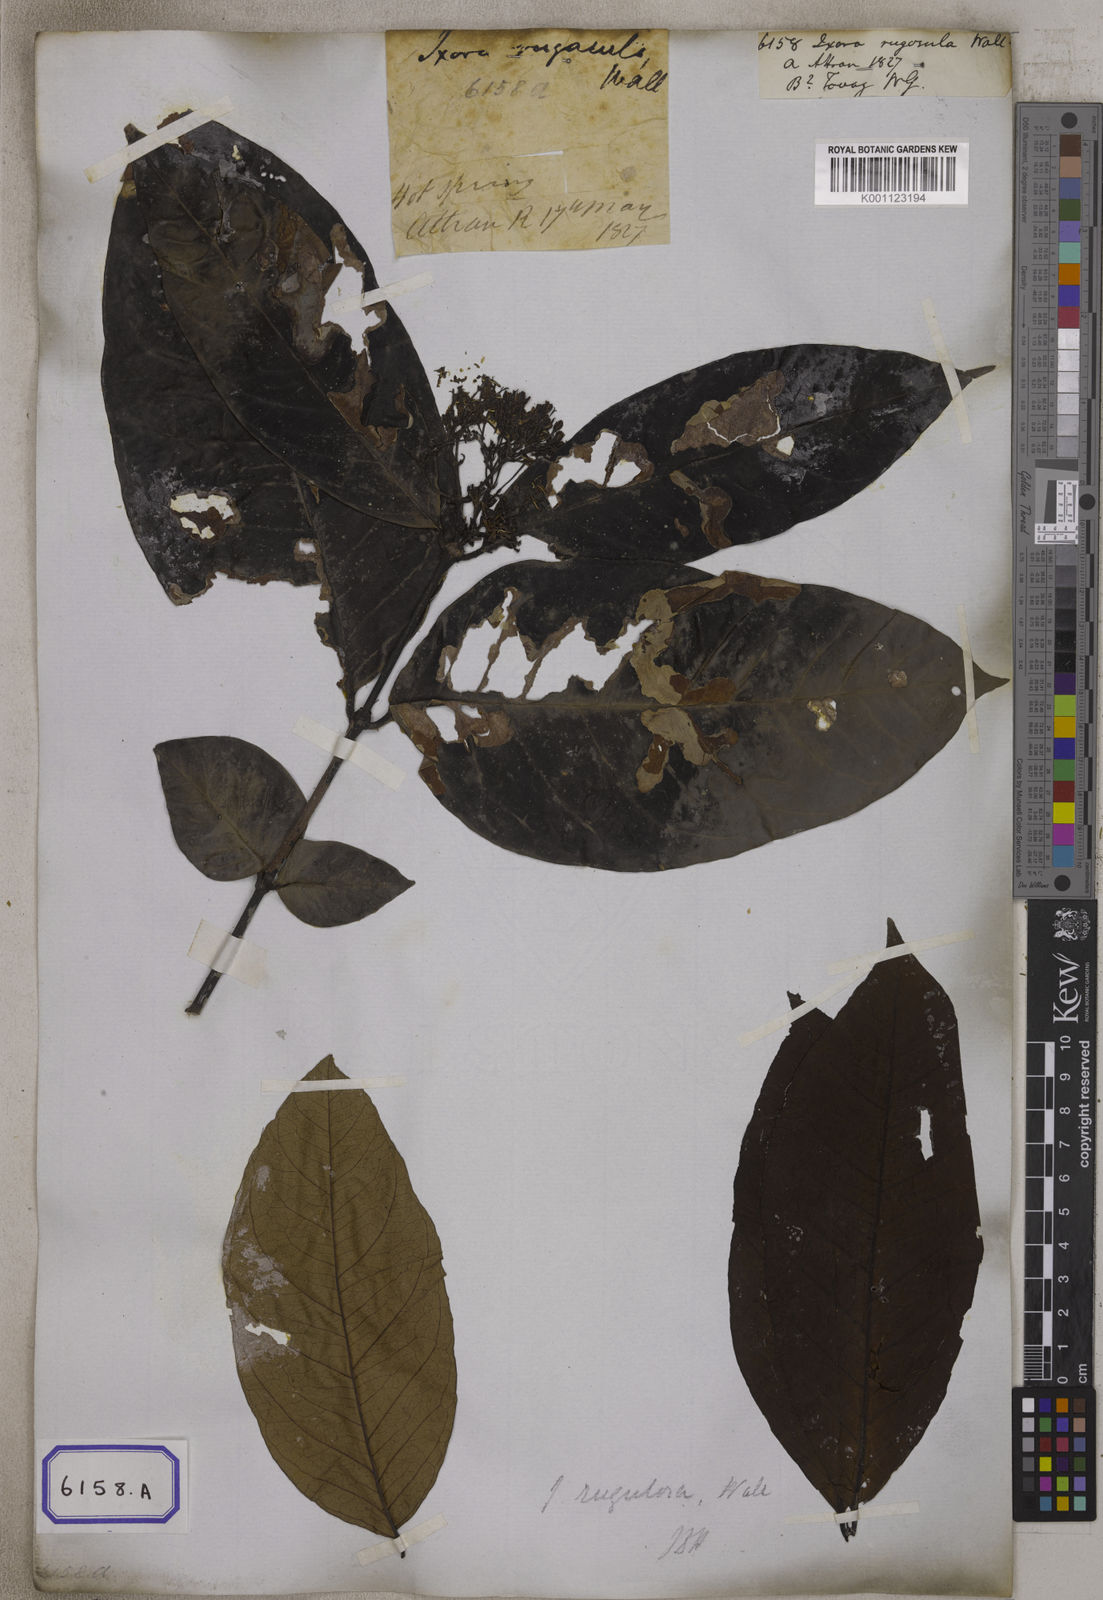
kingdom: Plantae
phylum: Tracheophyta
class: Magnoliopsida
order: Gentianales
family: Rubiaceae
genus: Ixora
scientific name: Ixora
